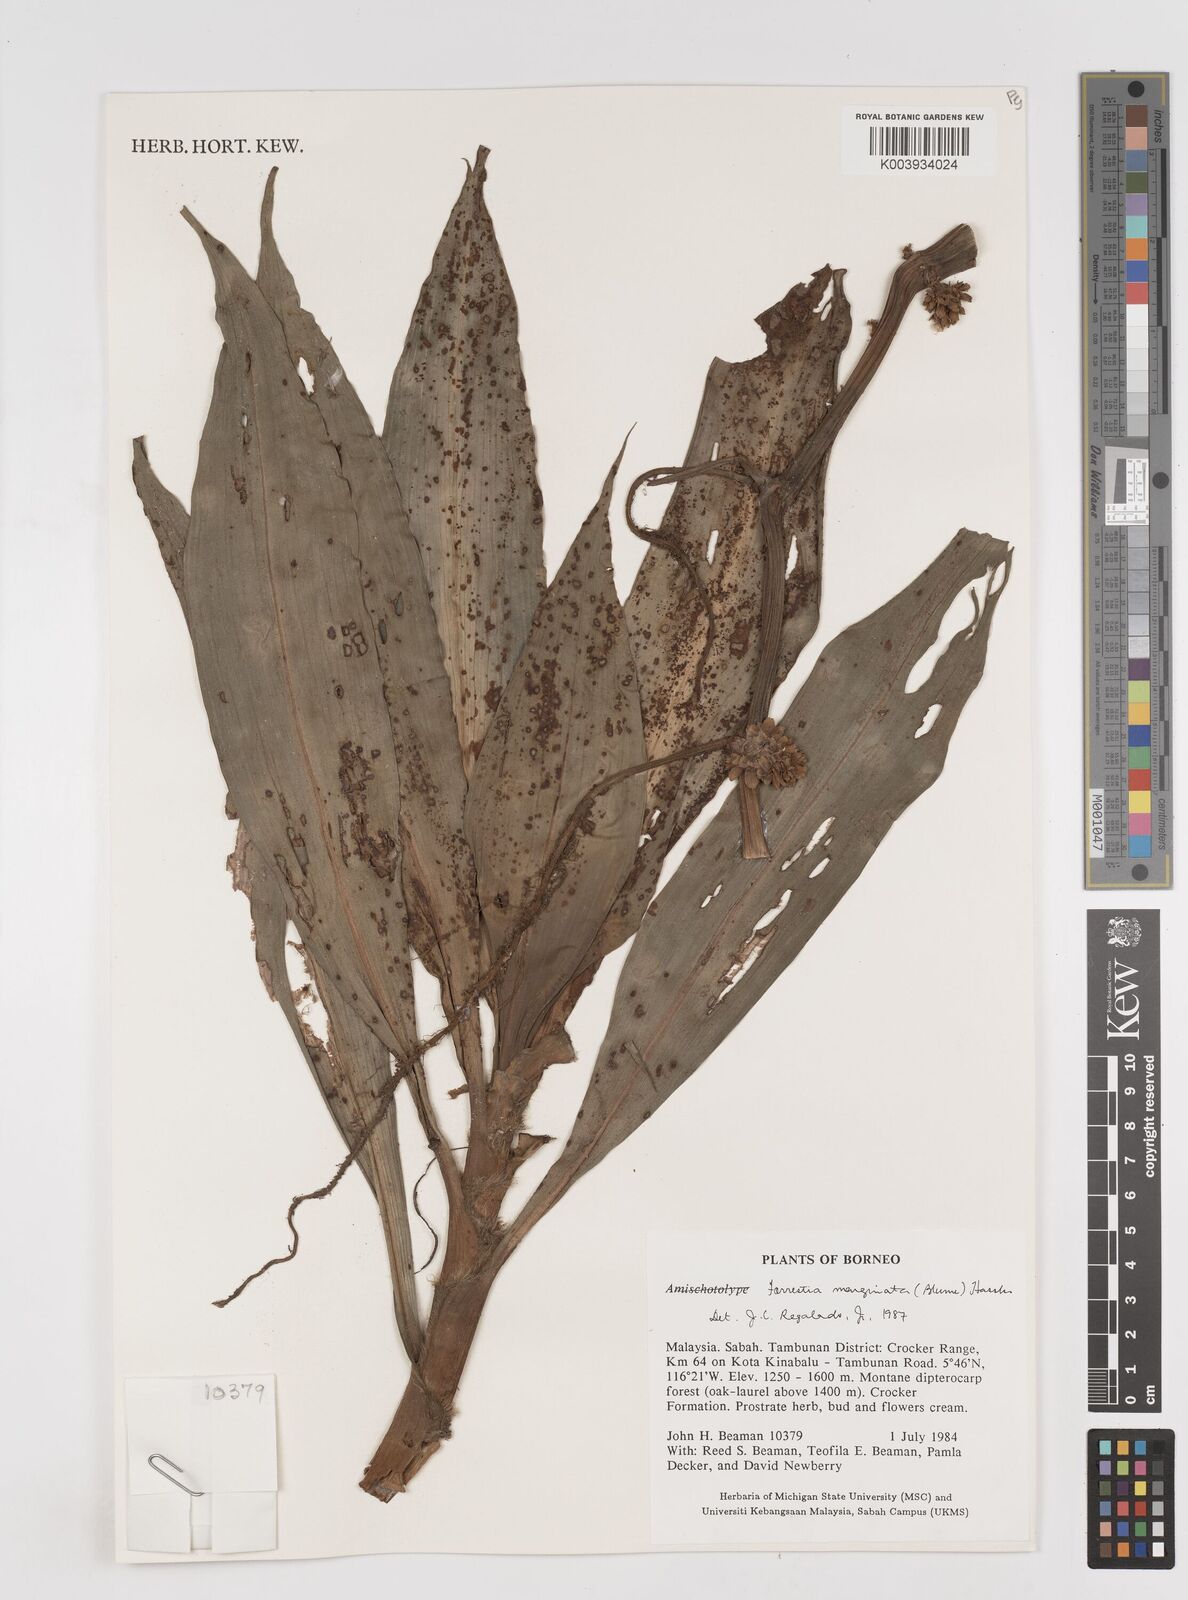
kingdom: Plantae
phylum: Tracheophyta
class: Liliopsida
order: Commelinales
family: Commelinaceae
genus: Amischotolype
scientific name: Amischotolype marginata
